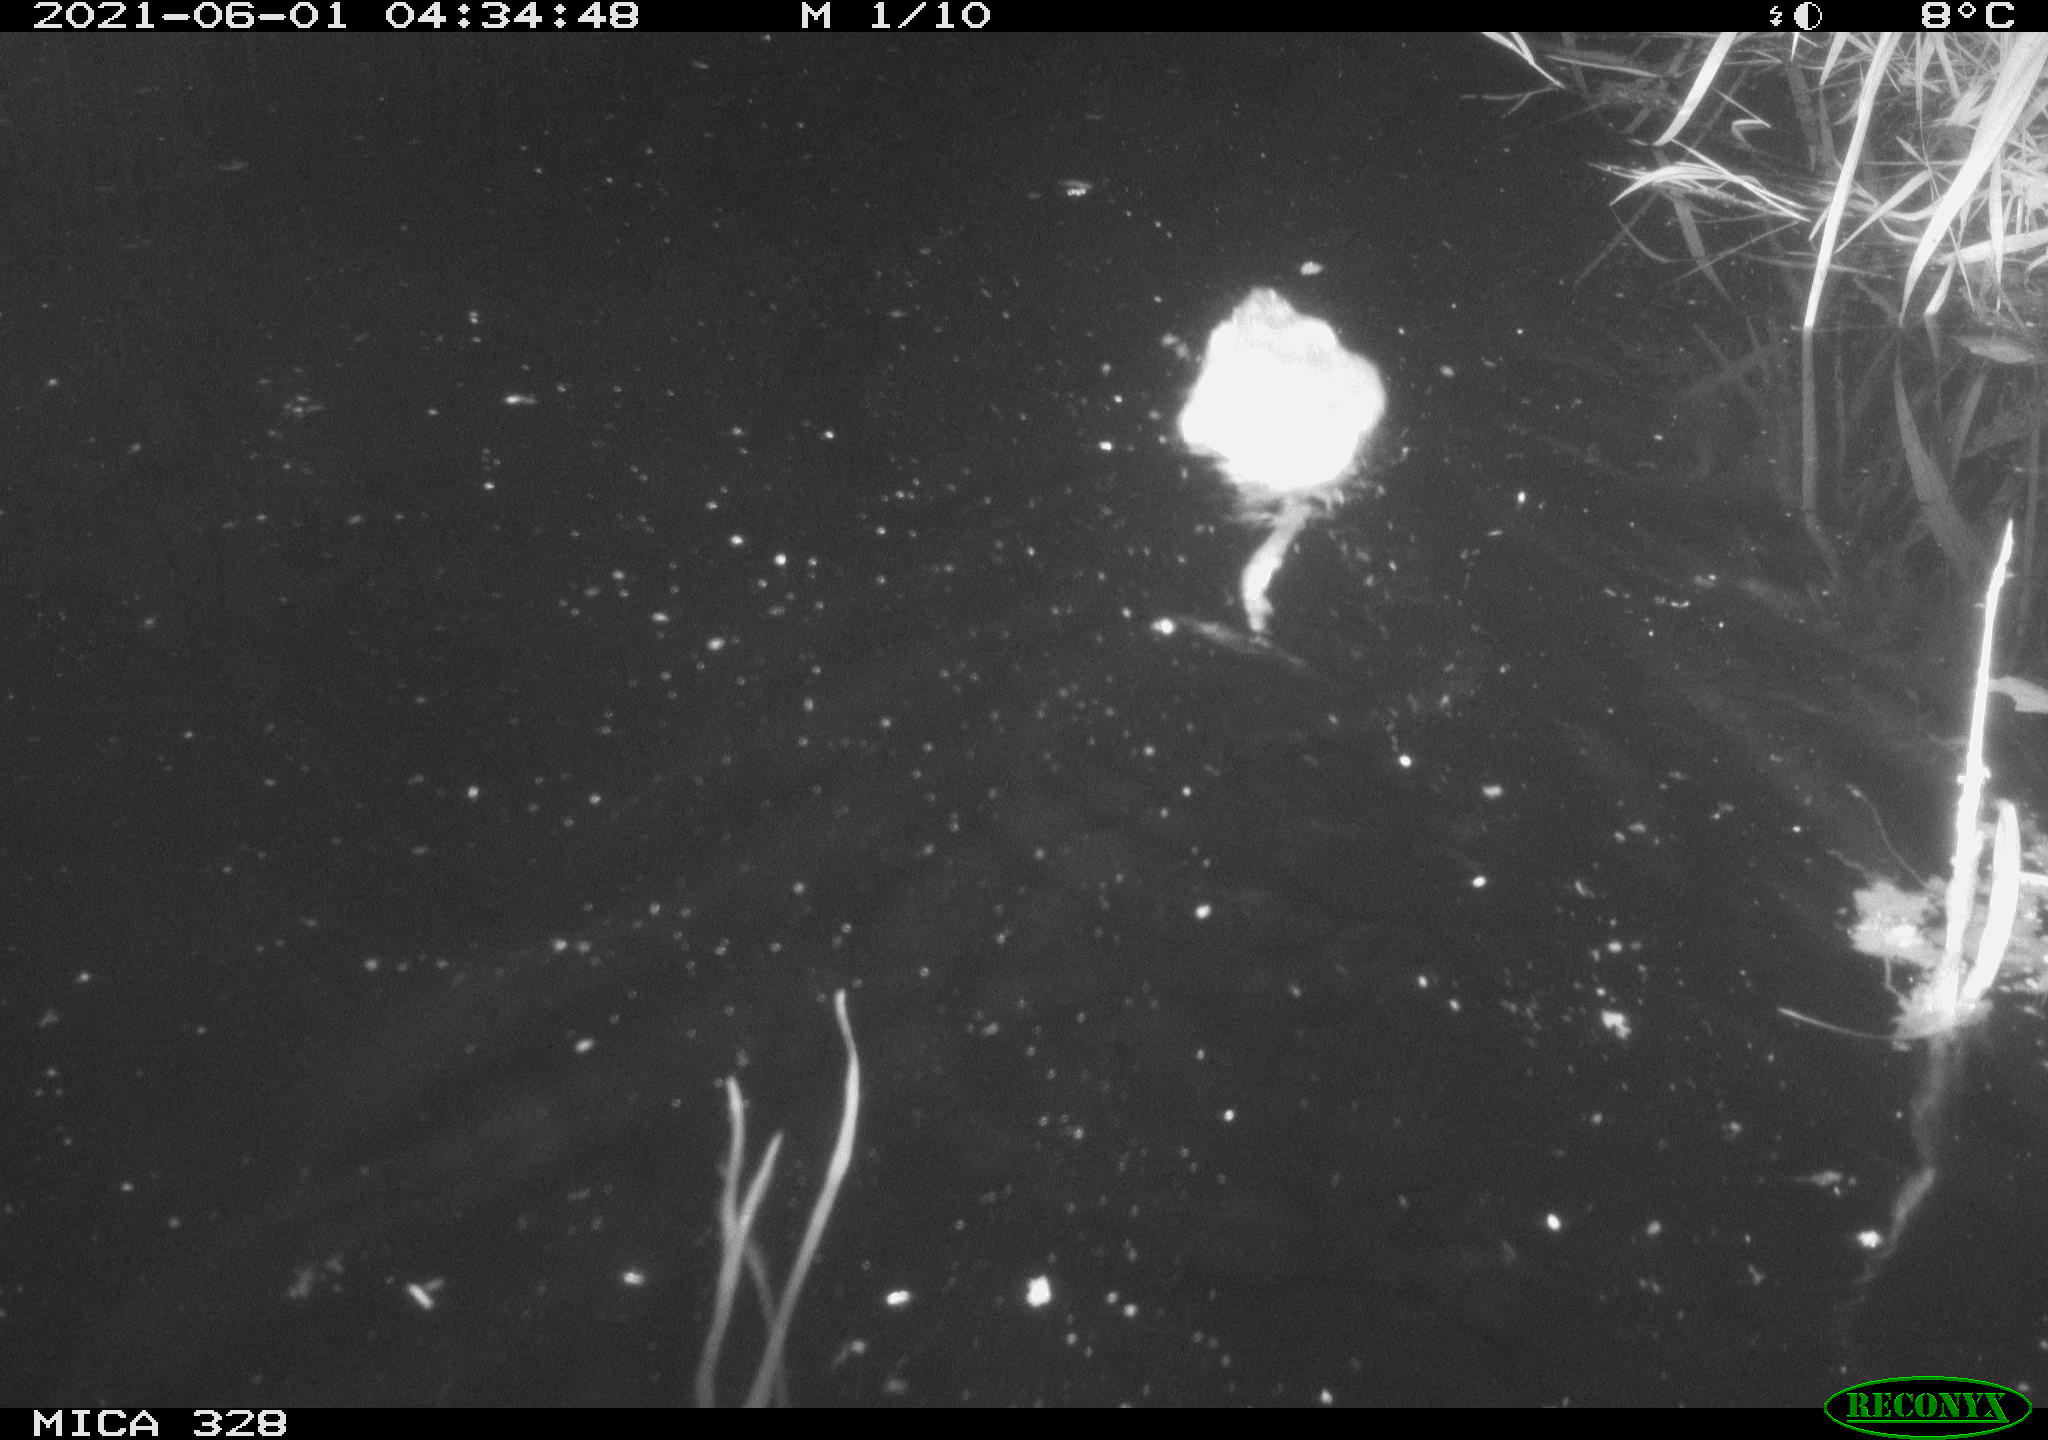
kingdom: Animalia
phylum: Chordata
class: Mammalia
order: Rodentia
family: Cricetidae
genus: Ondatra
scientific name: Ondatra zibethicus
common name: Muskrat
